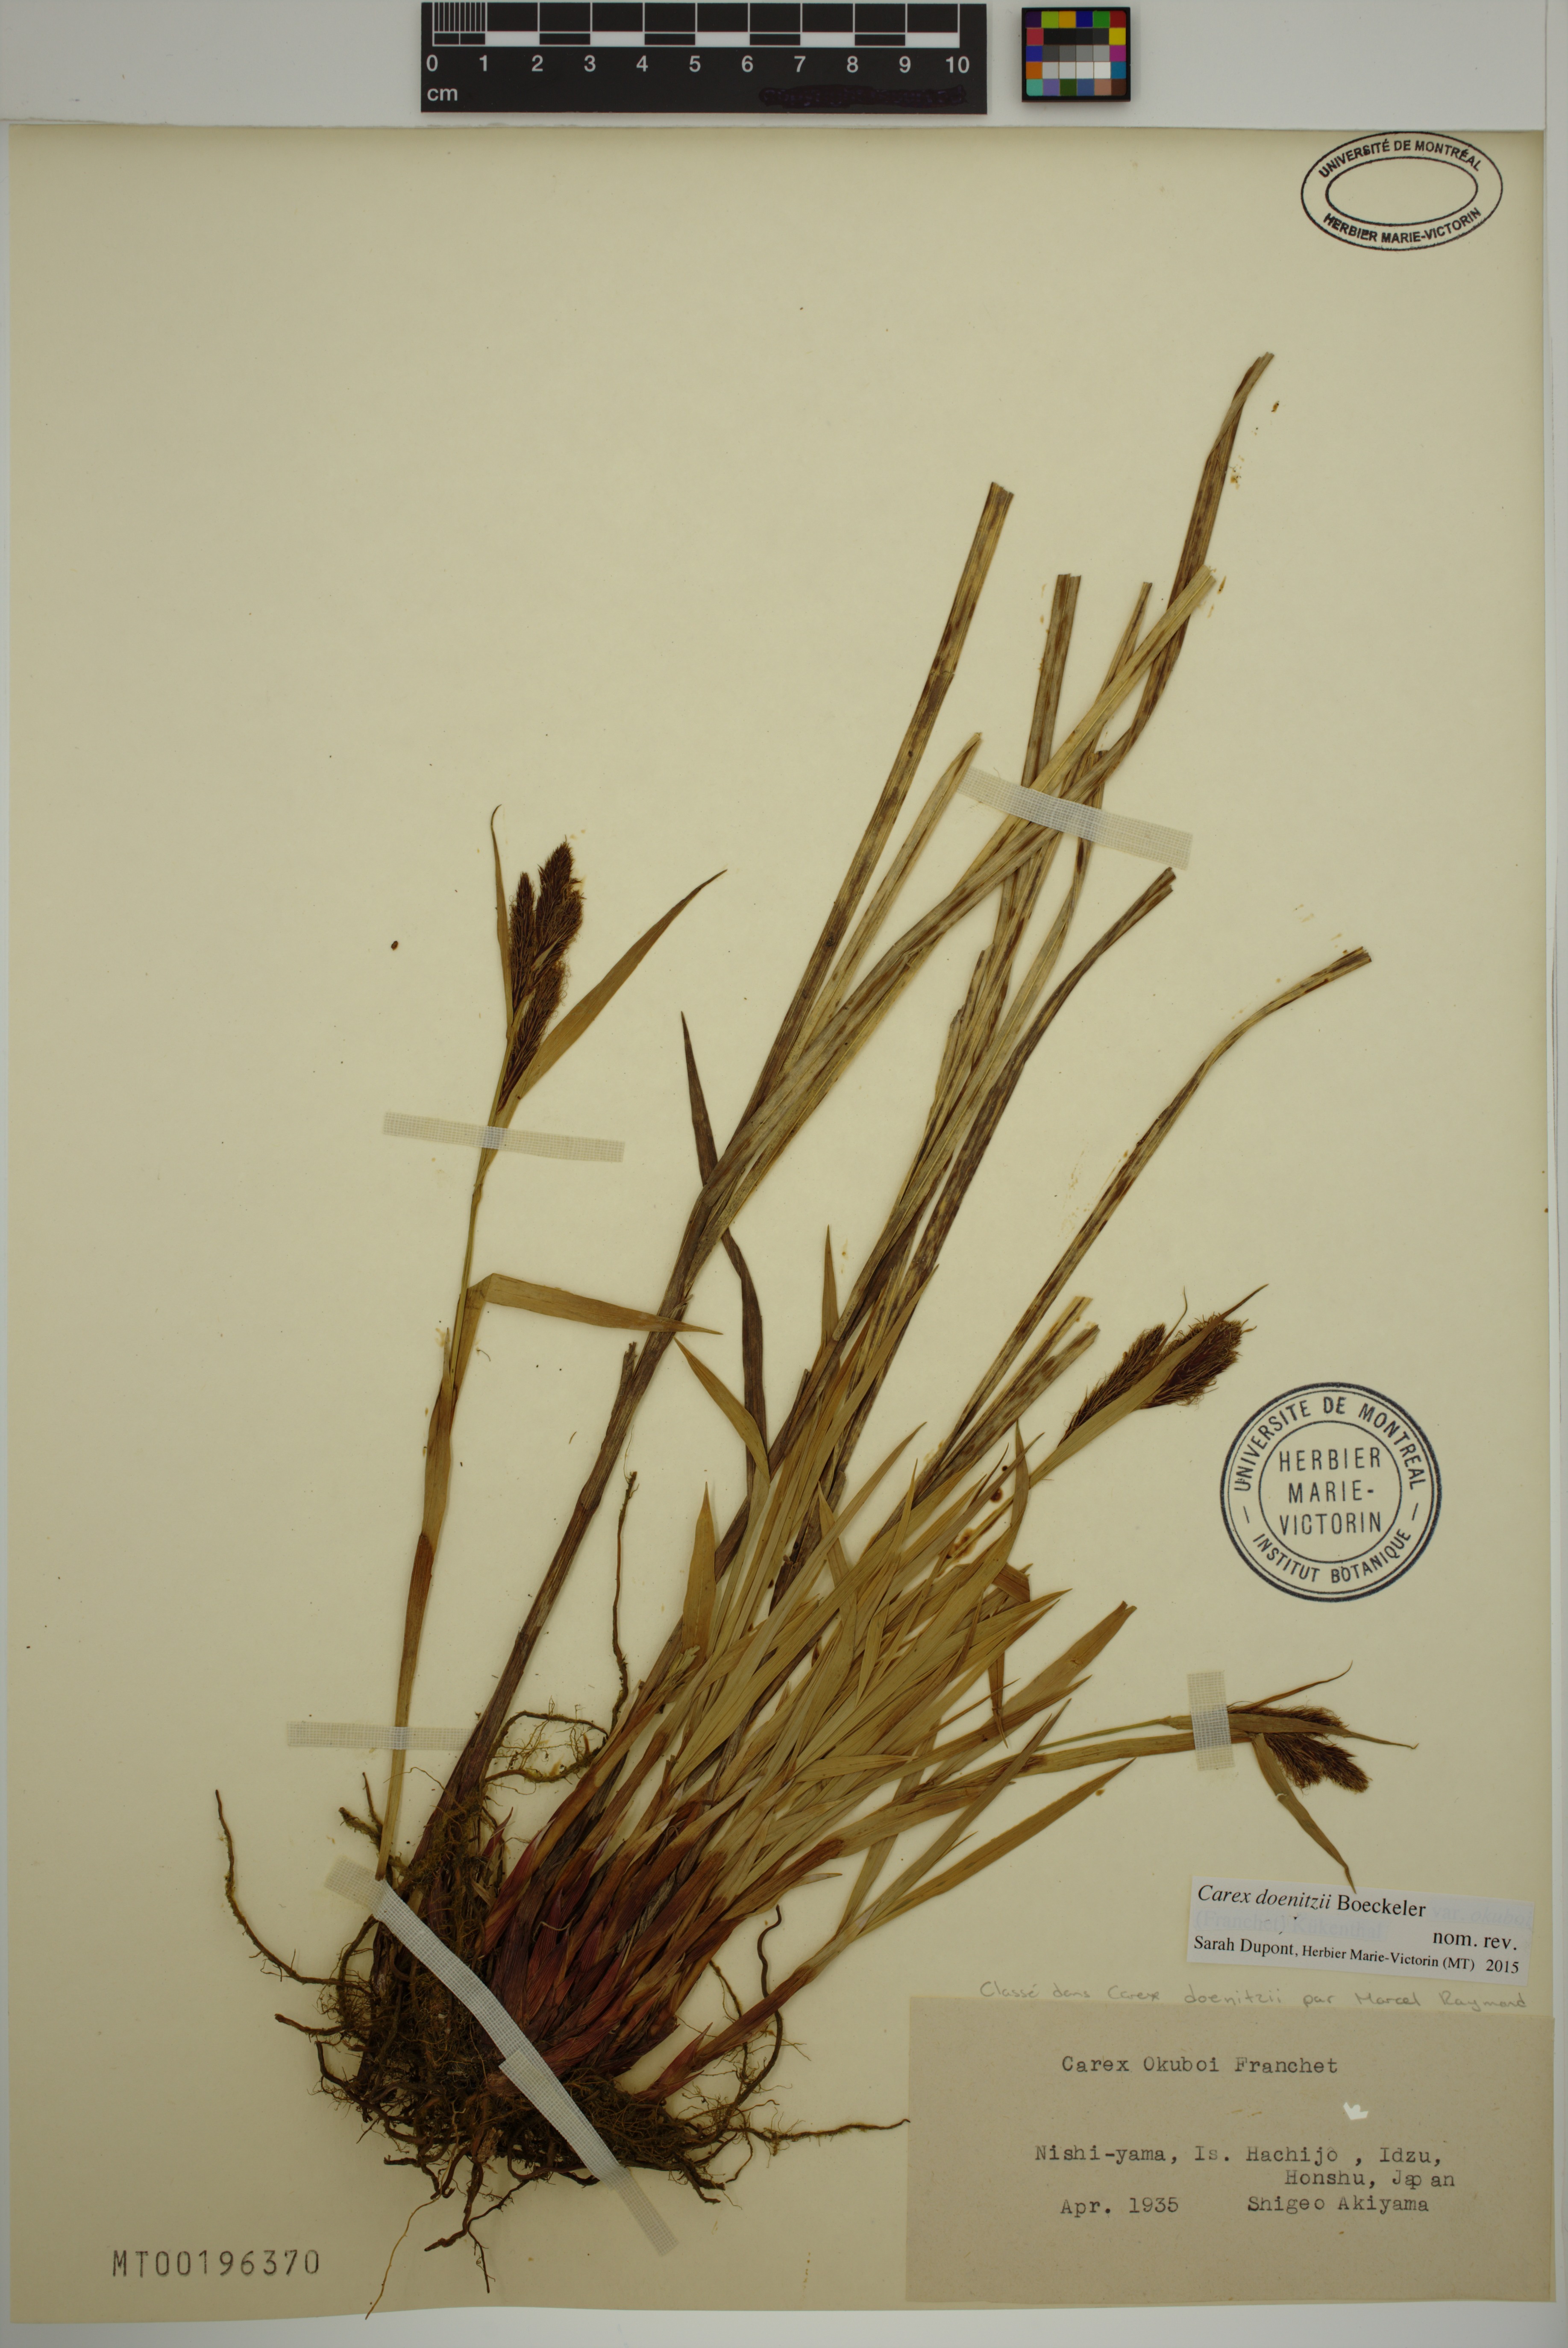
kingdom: Plantae
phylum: Tracheophyta
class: Liliopsida
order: Poales
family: Cyperaceae
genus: Carex
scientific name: Carex doenitzii
